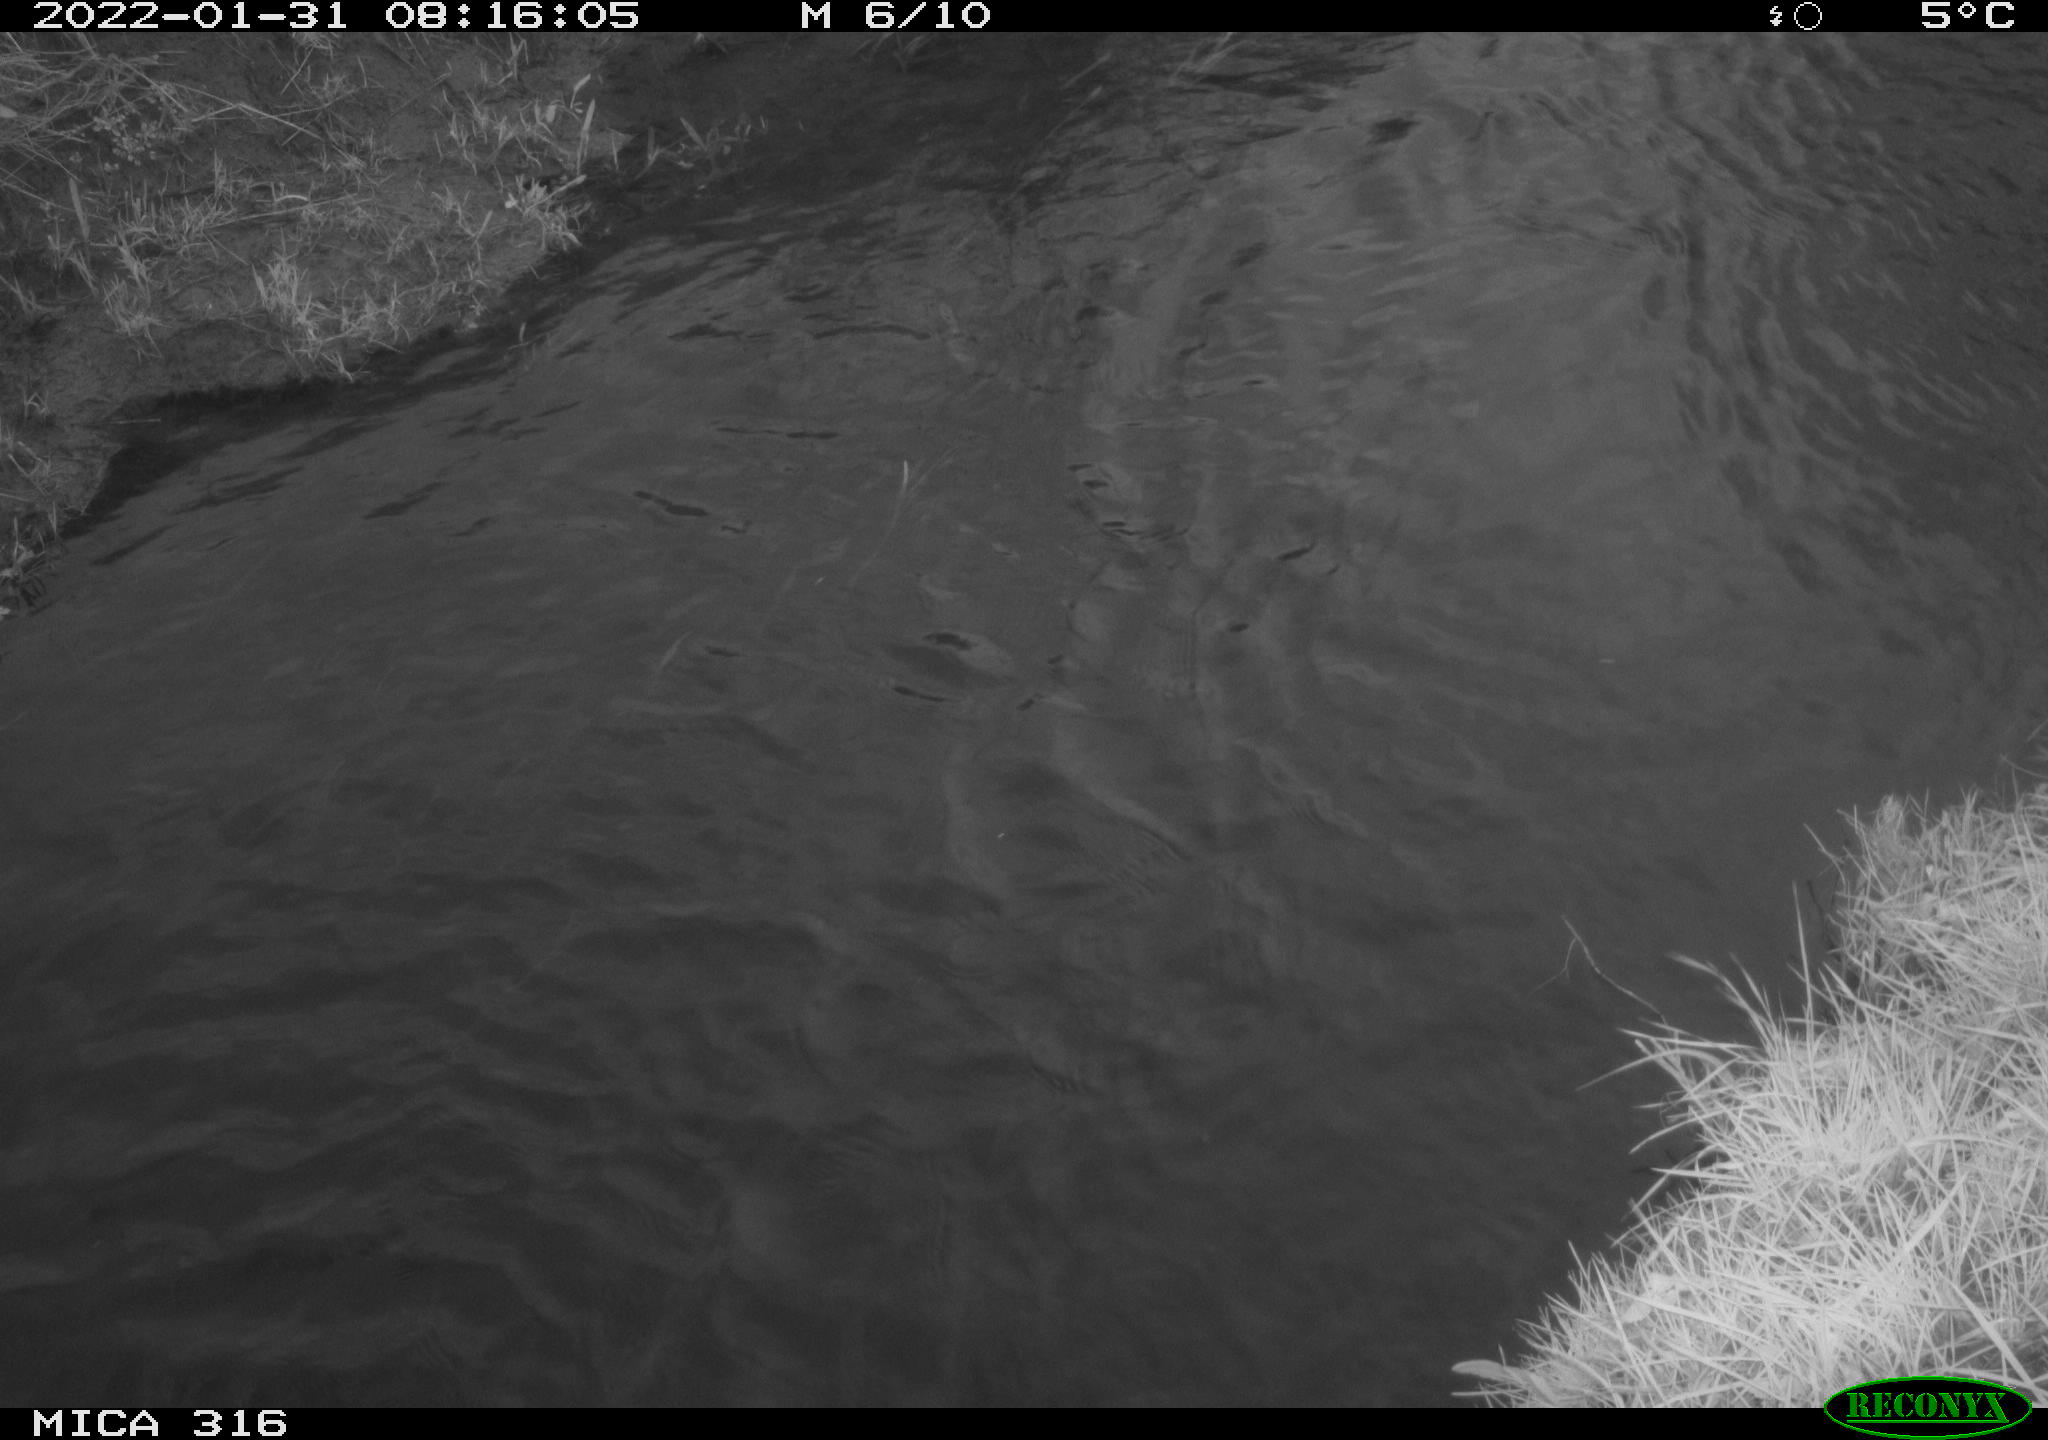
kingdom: Animalia
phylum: Chordata
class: Aves
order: Gruiformes
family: Rallidae
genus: Gallinula
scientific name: Gallinula chloropus
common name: Common moorhen
